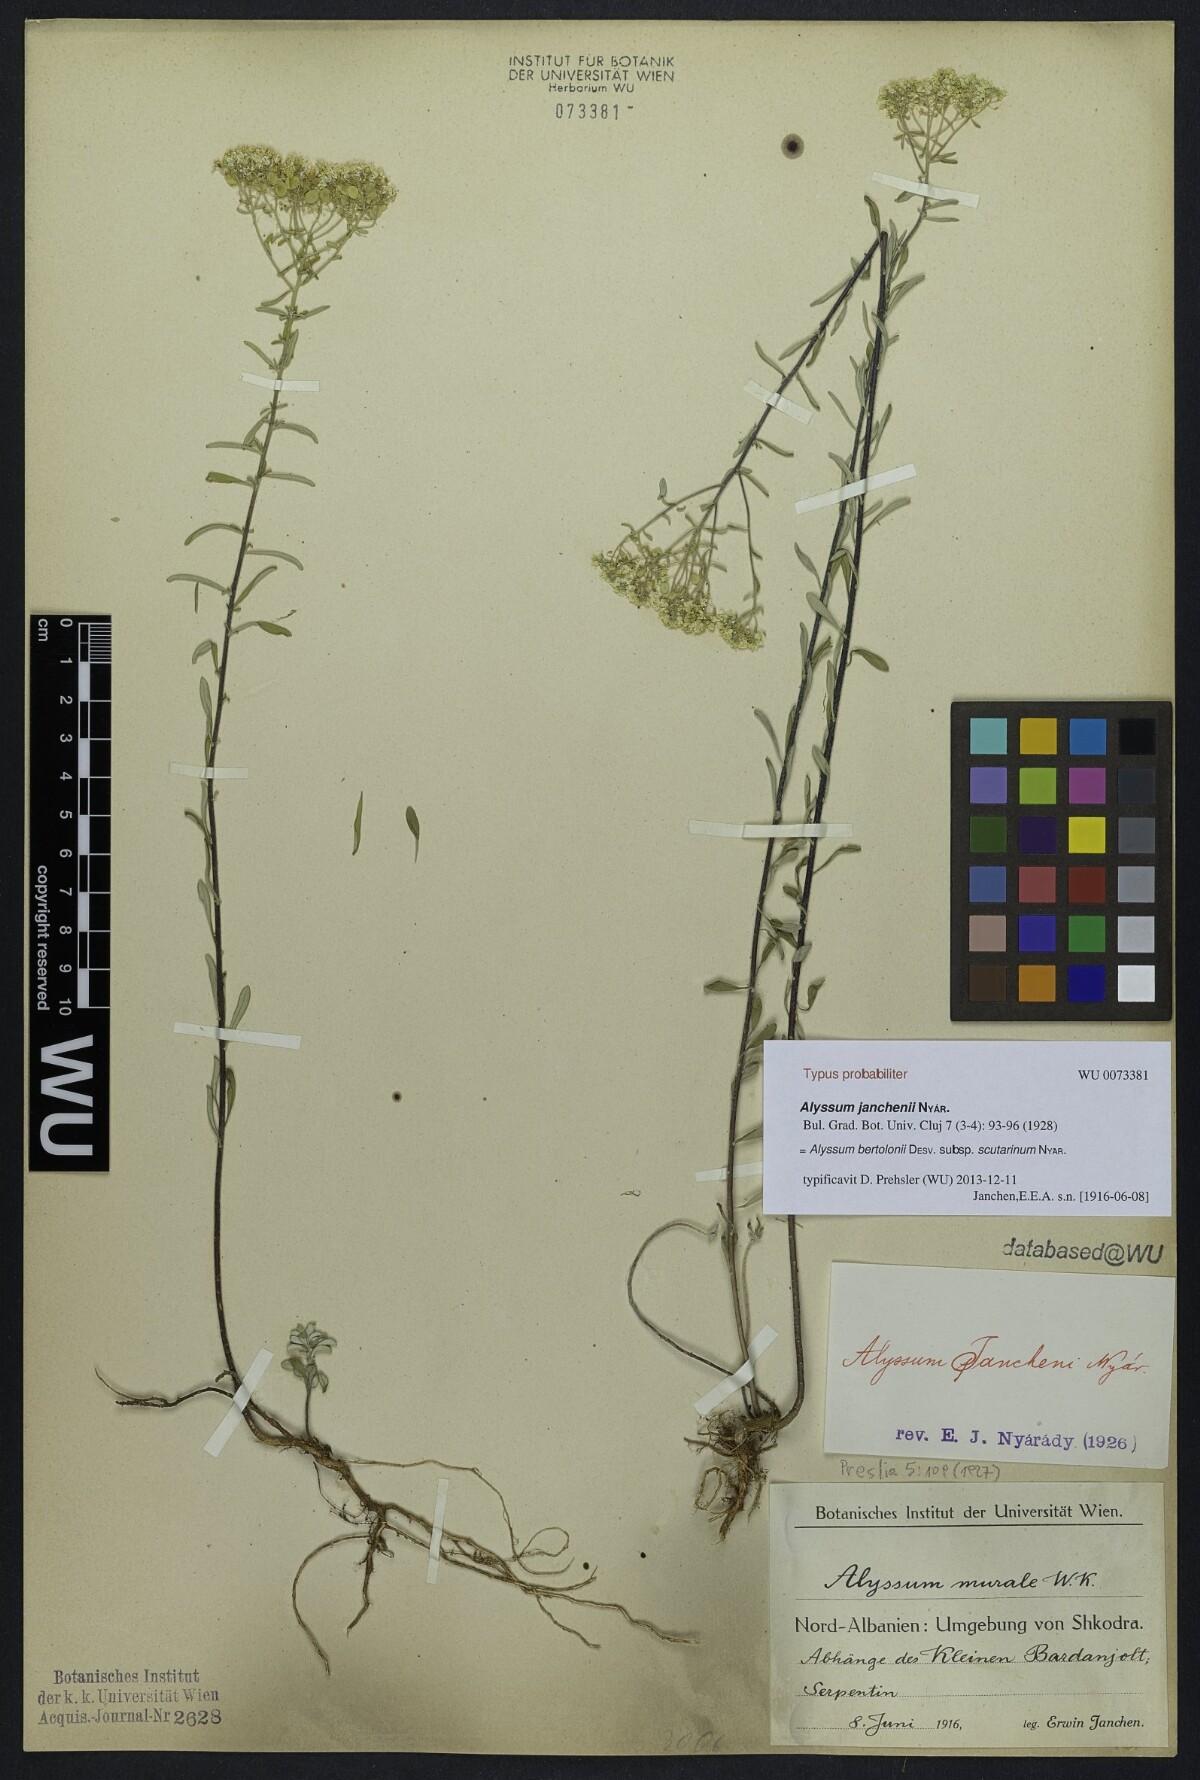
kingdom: Plantae
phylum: Tracheophyta
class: Magnoliopsida
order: Brassicales
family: Brassicaceae
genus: Odontarrhena
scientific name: Odontarrhena chalcidica
